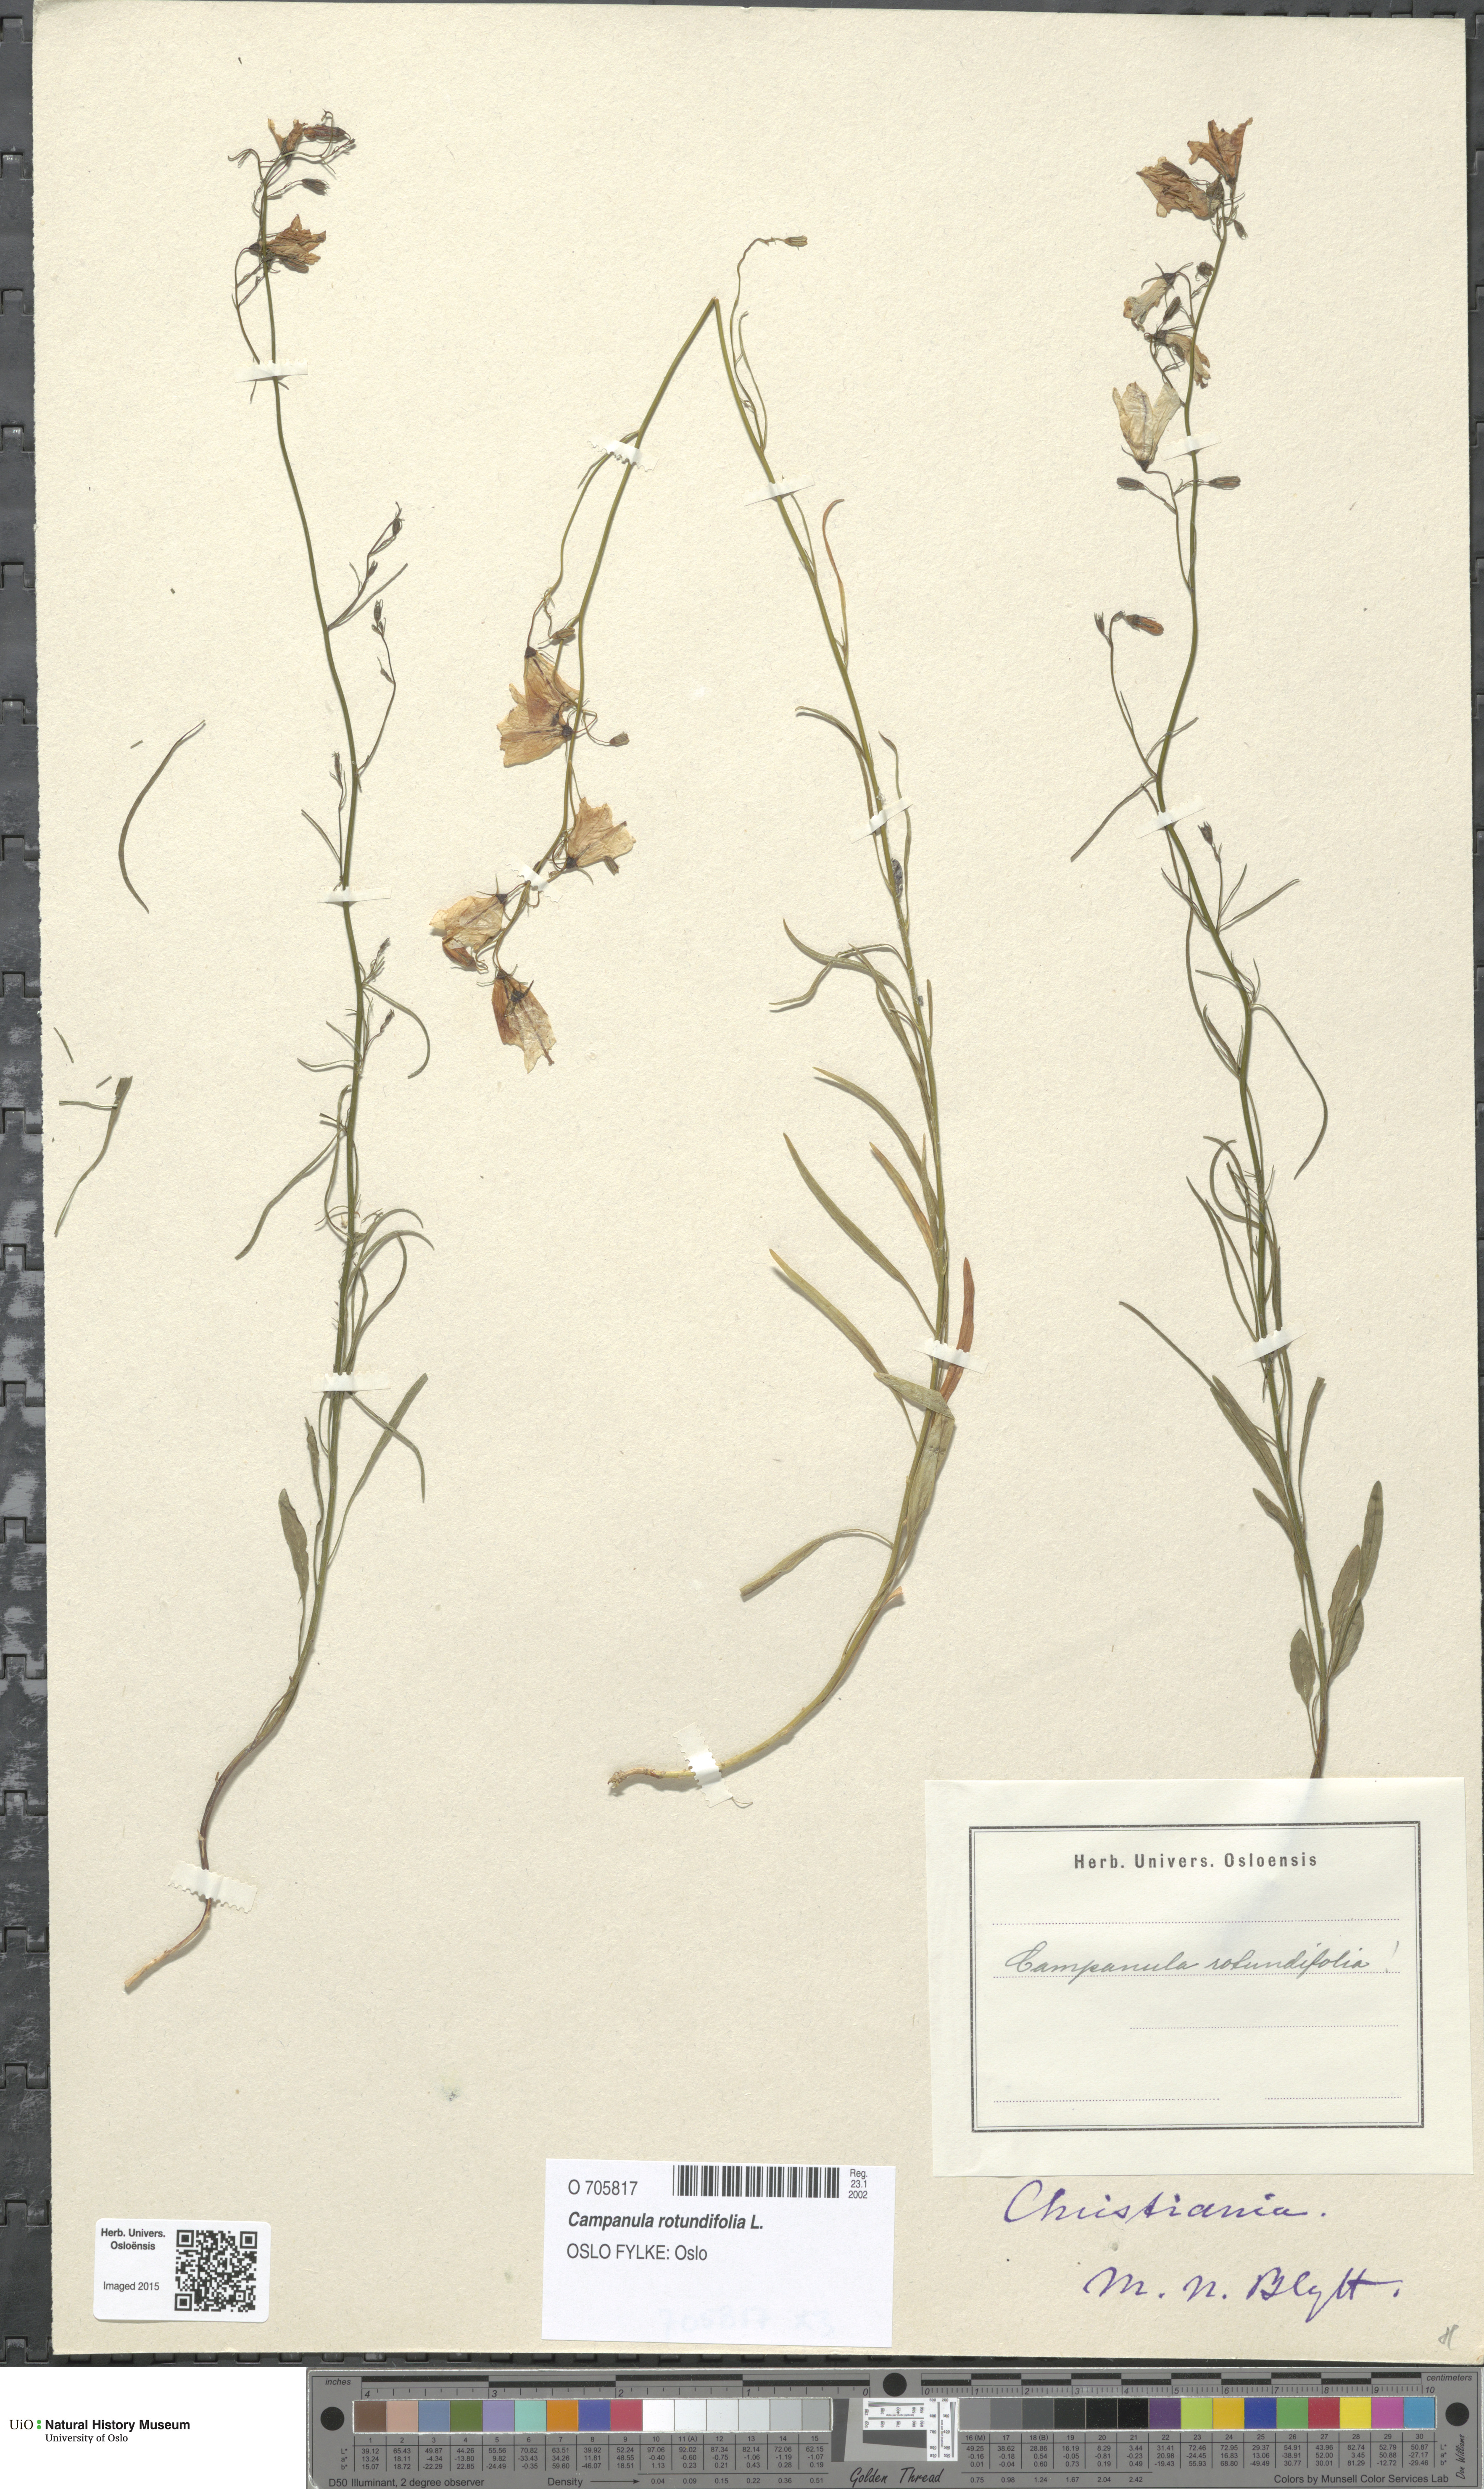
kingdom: Plantae
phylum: Tracheophyta
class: Magnoliopsida
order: Asterales
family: Campanulaceae
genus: Campanula
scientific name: Campanula rotundifolia
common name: Harebell
